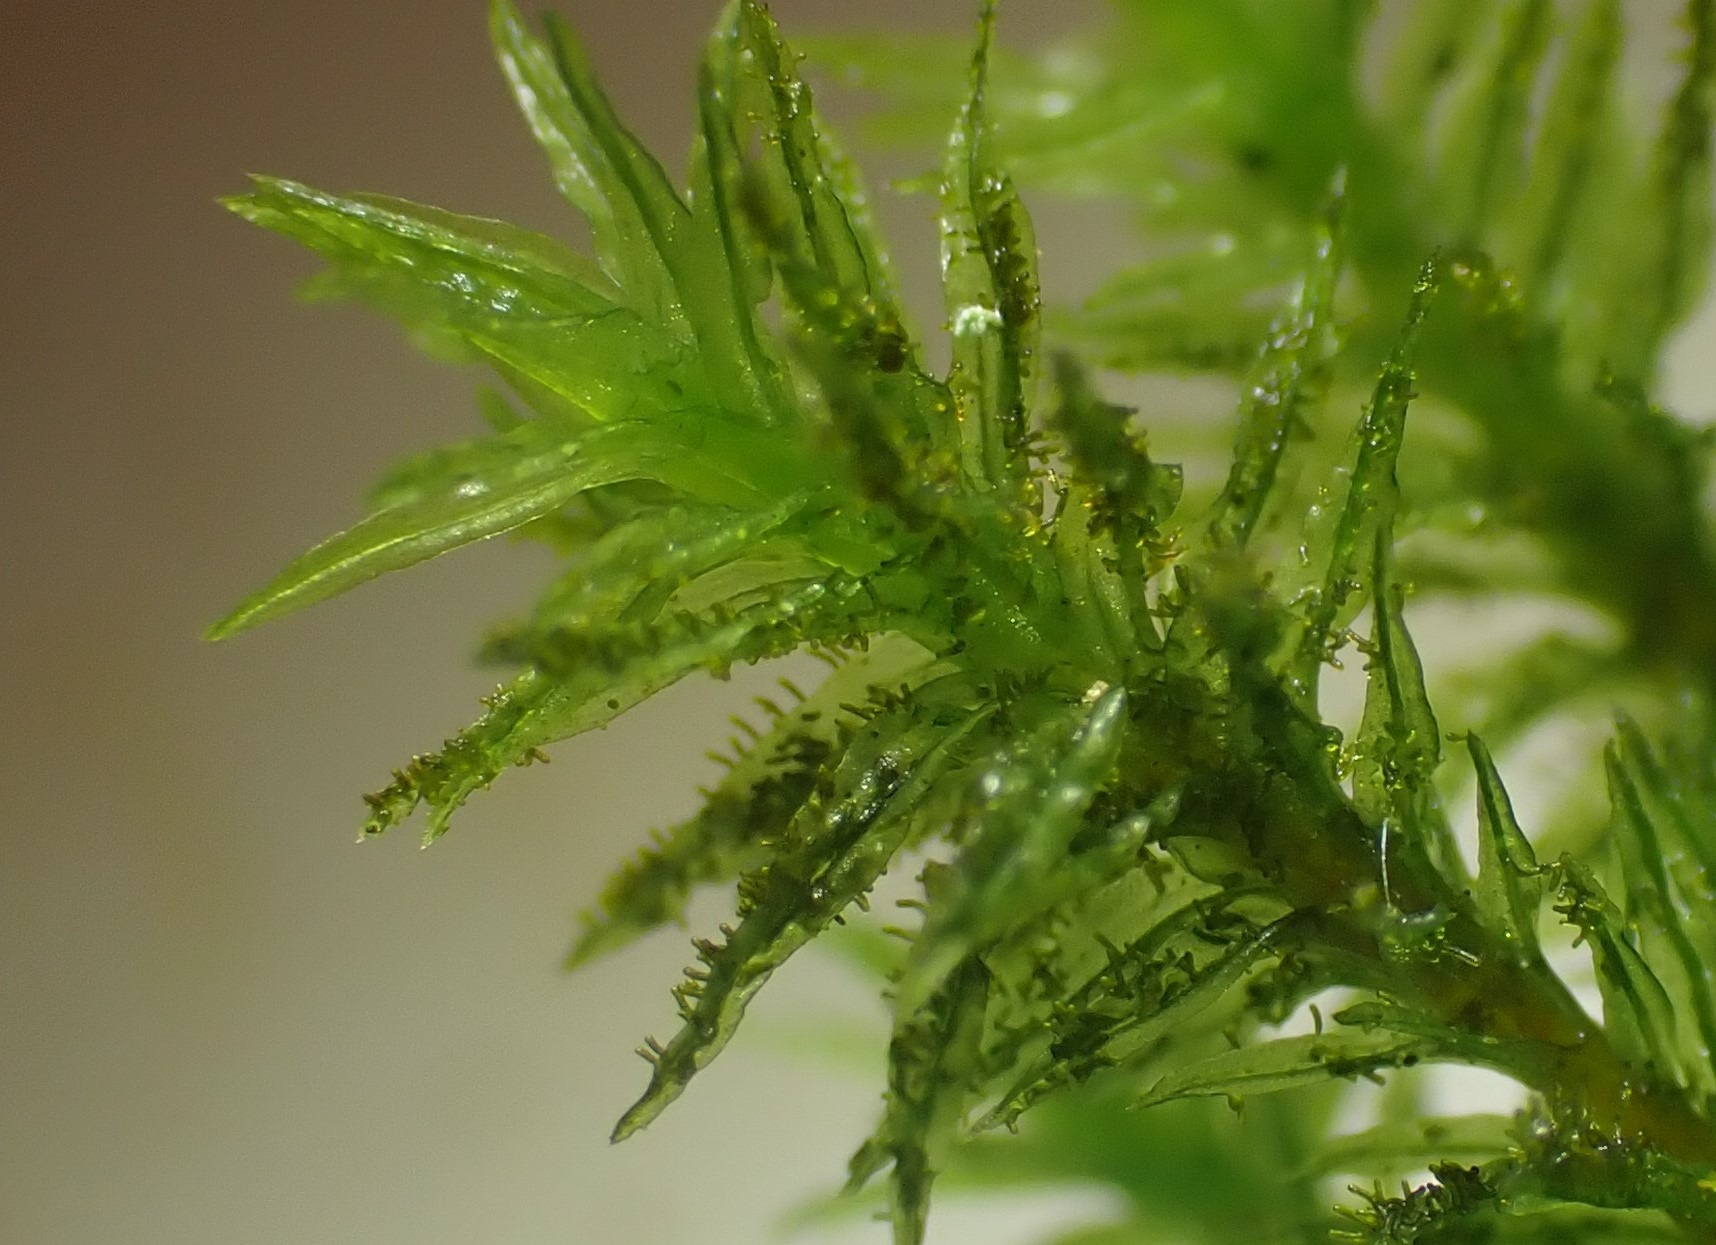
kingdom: Plantae
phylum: Bryophyta
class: Bryopsida
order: Orthotrichales
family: Orthotrichaceae
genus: Pulvigera
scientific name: Pulvigera lyellii
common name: Stor furehætte
